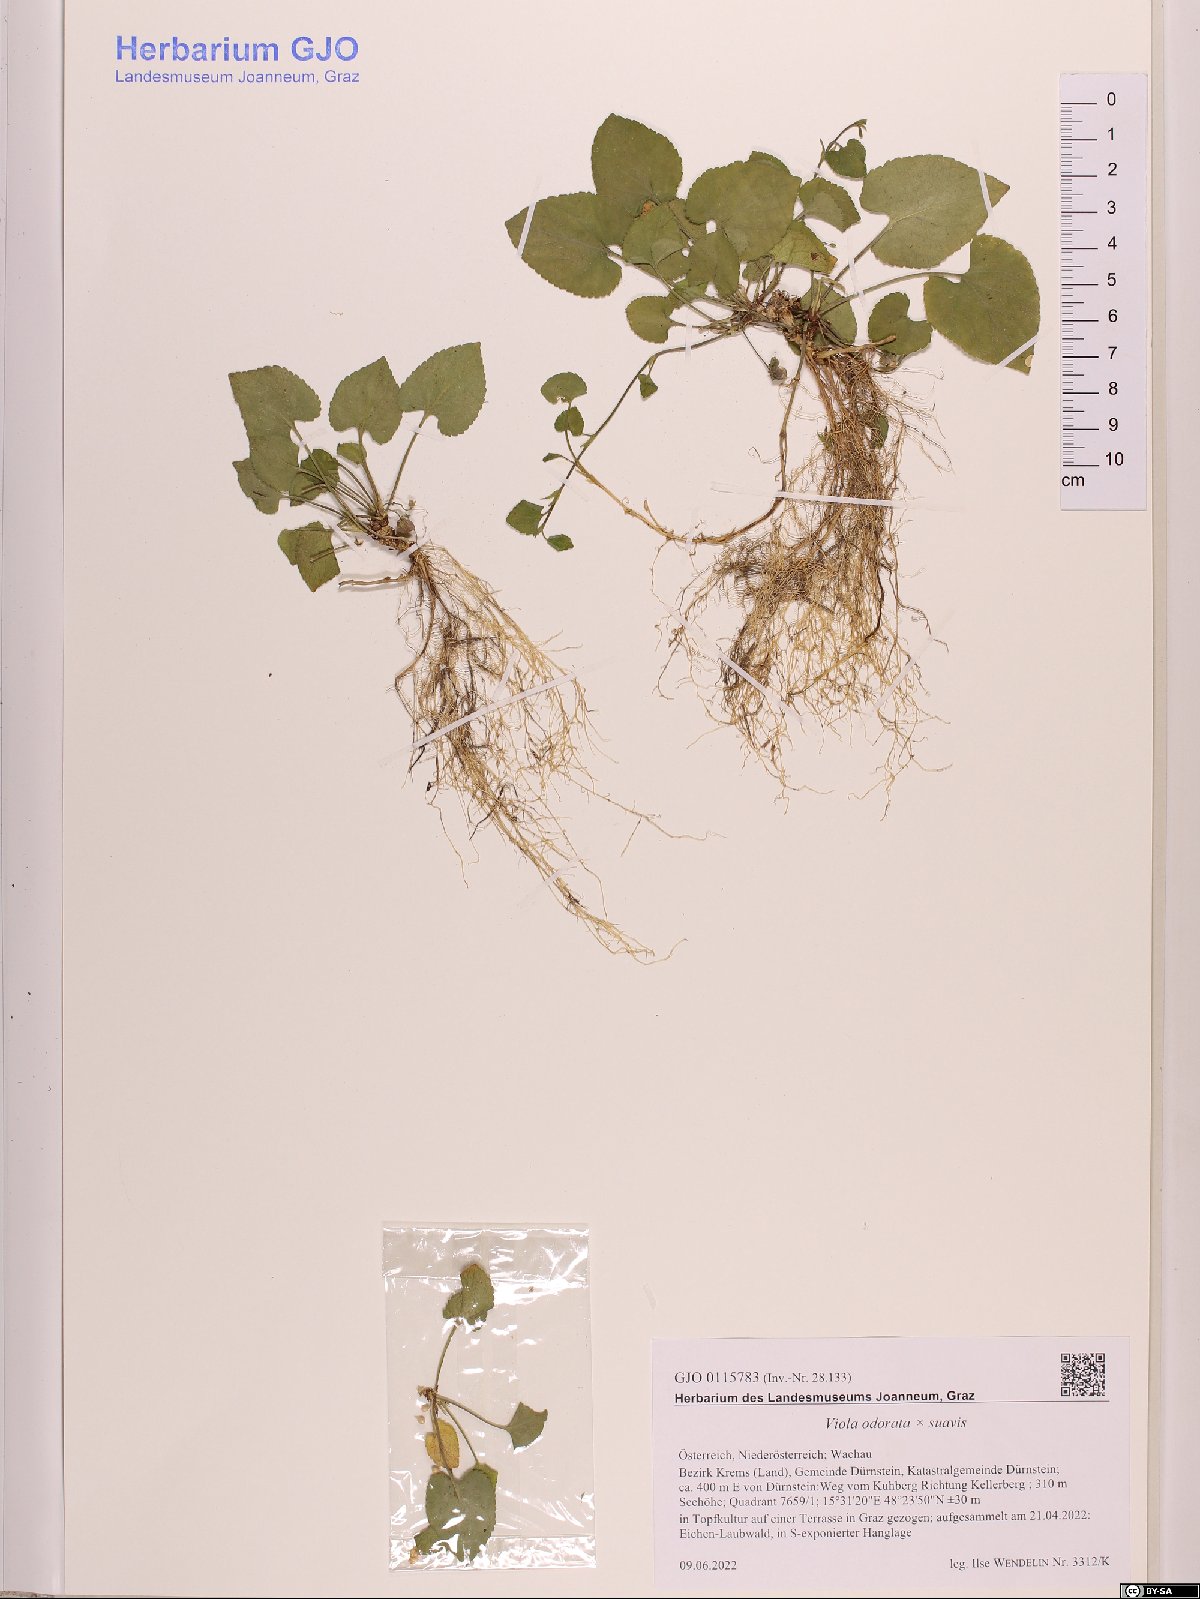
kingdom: Plantae
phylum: Tracheophyta
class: Magnoliopsida
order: Malpighiales
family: Violaceae
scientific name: Violaceae
